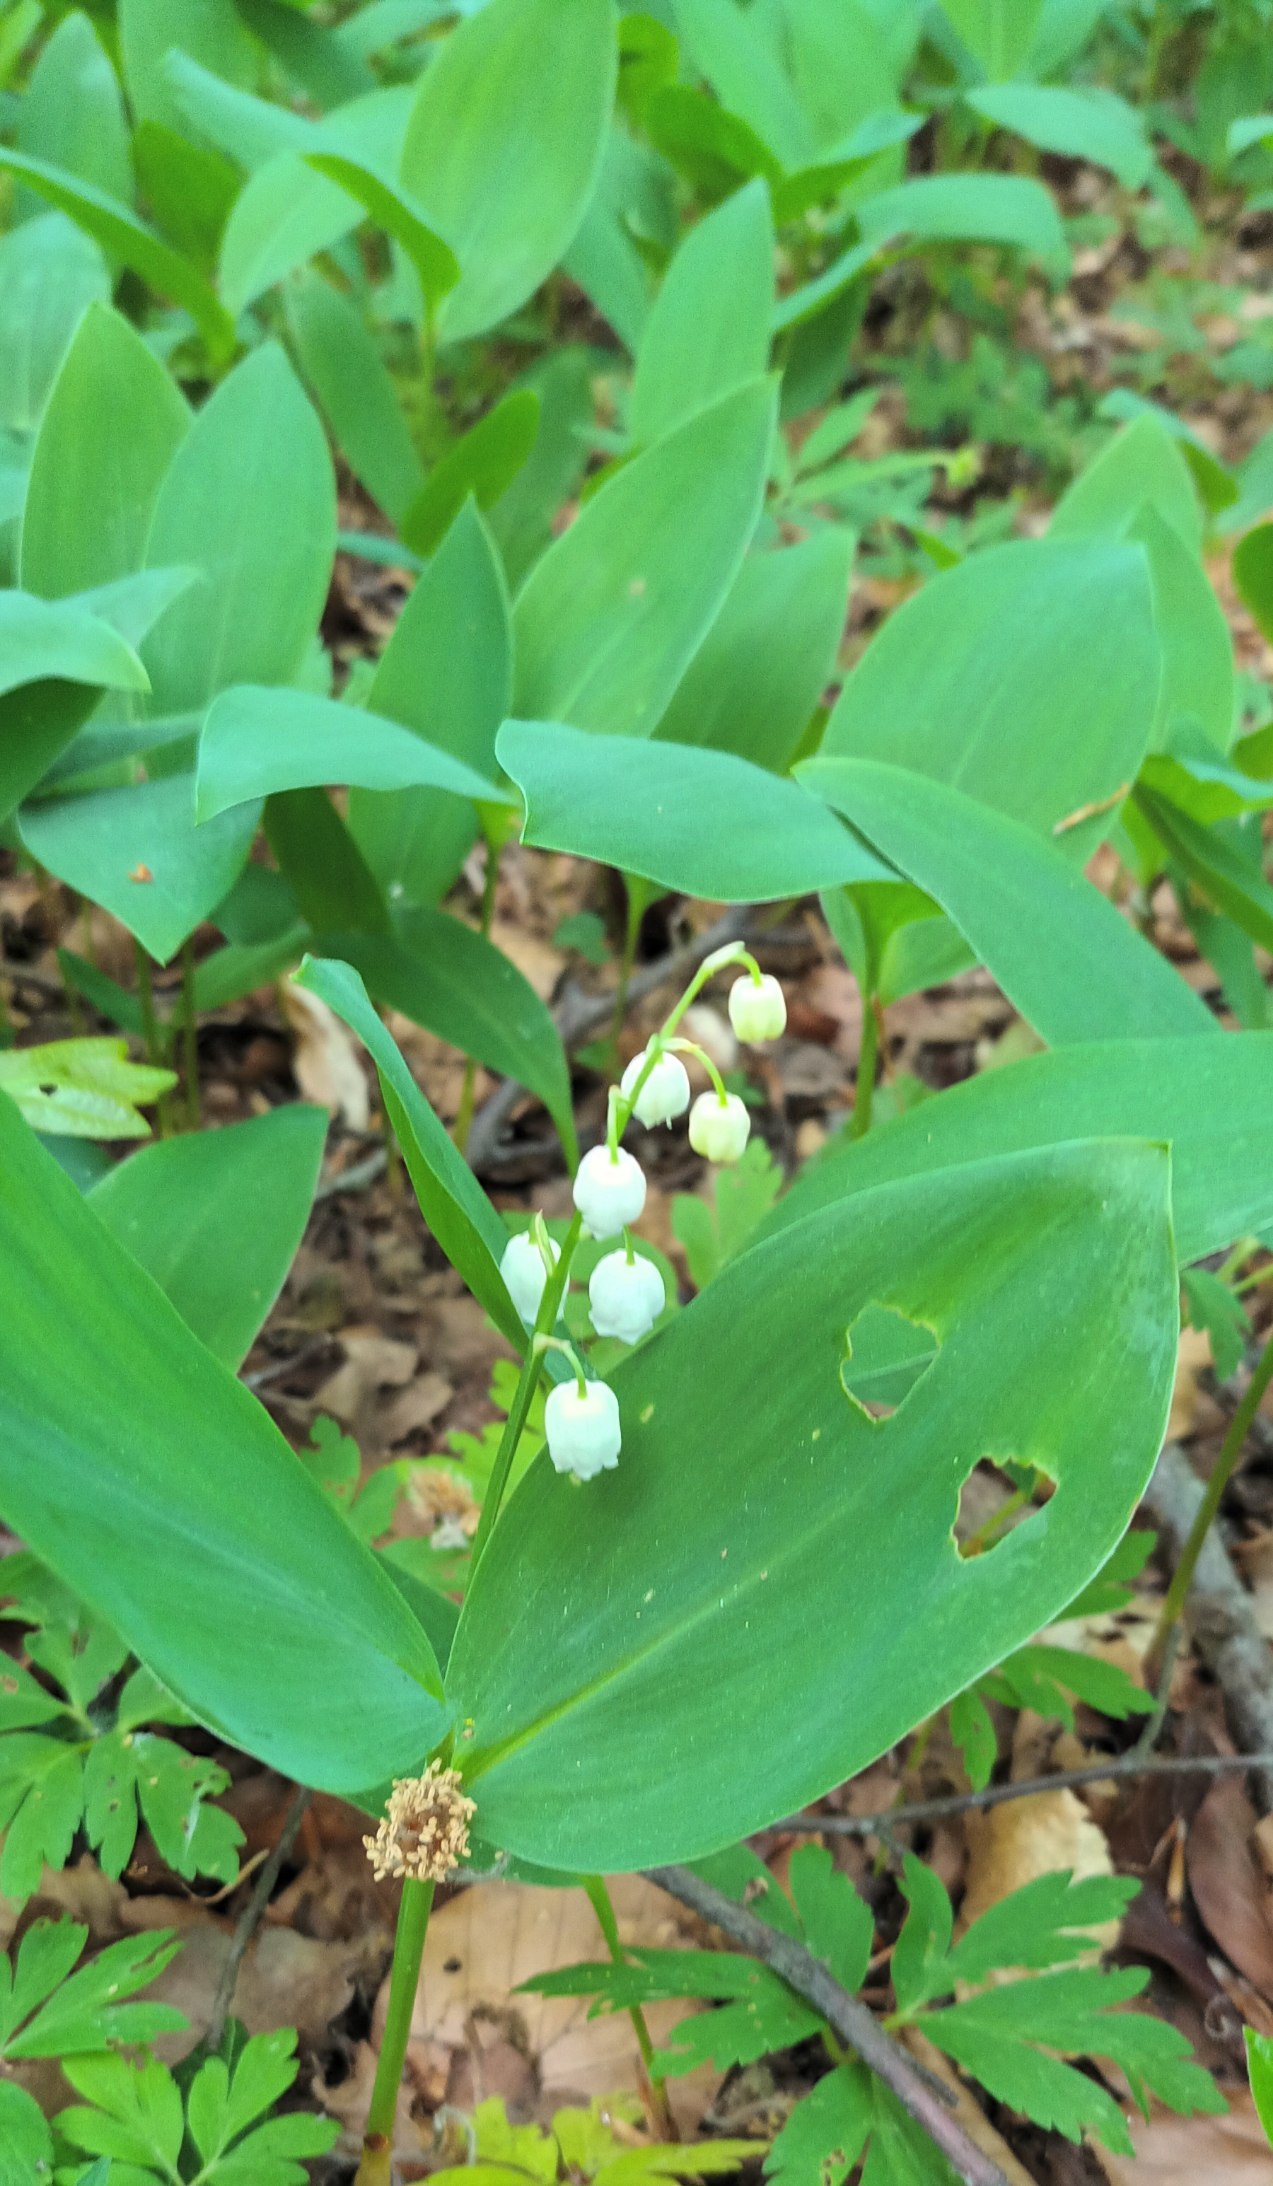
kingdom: Plantae
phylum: Tracheophyta
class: Liliopsida
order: Asparagales
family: Asparagaceae
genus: Convallaria
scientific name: Convallaria majalis
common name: Liljekonval
